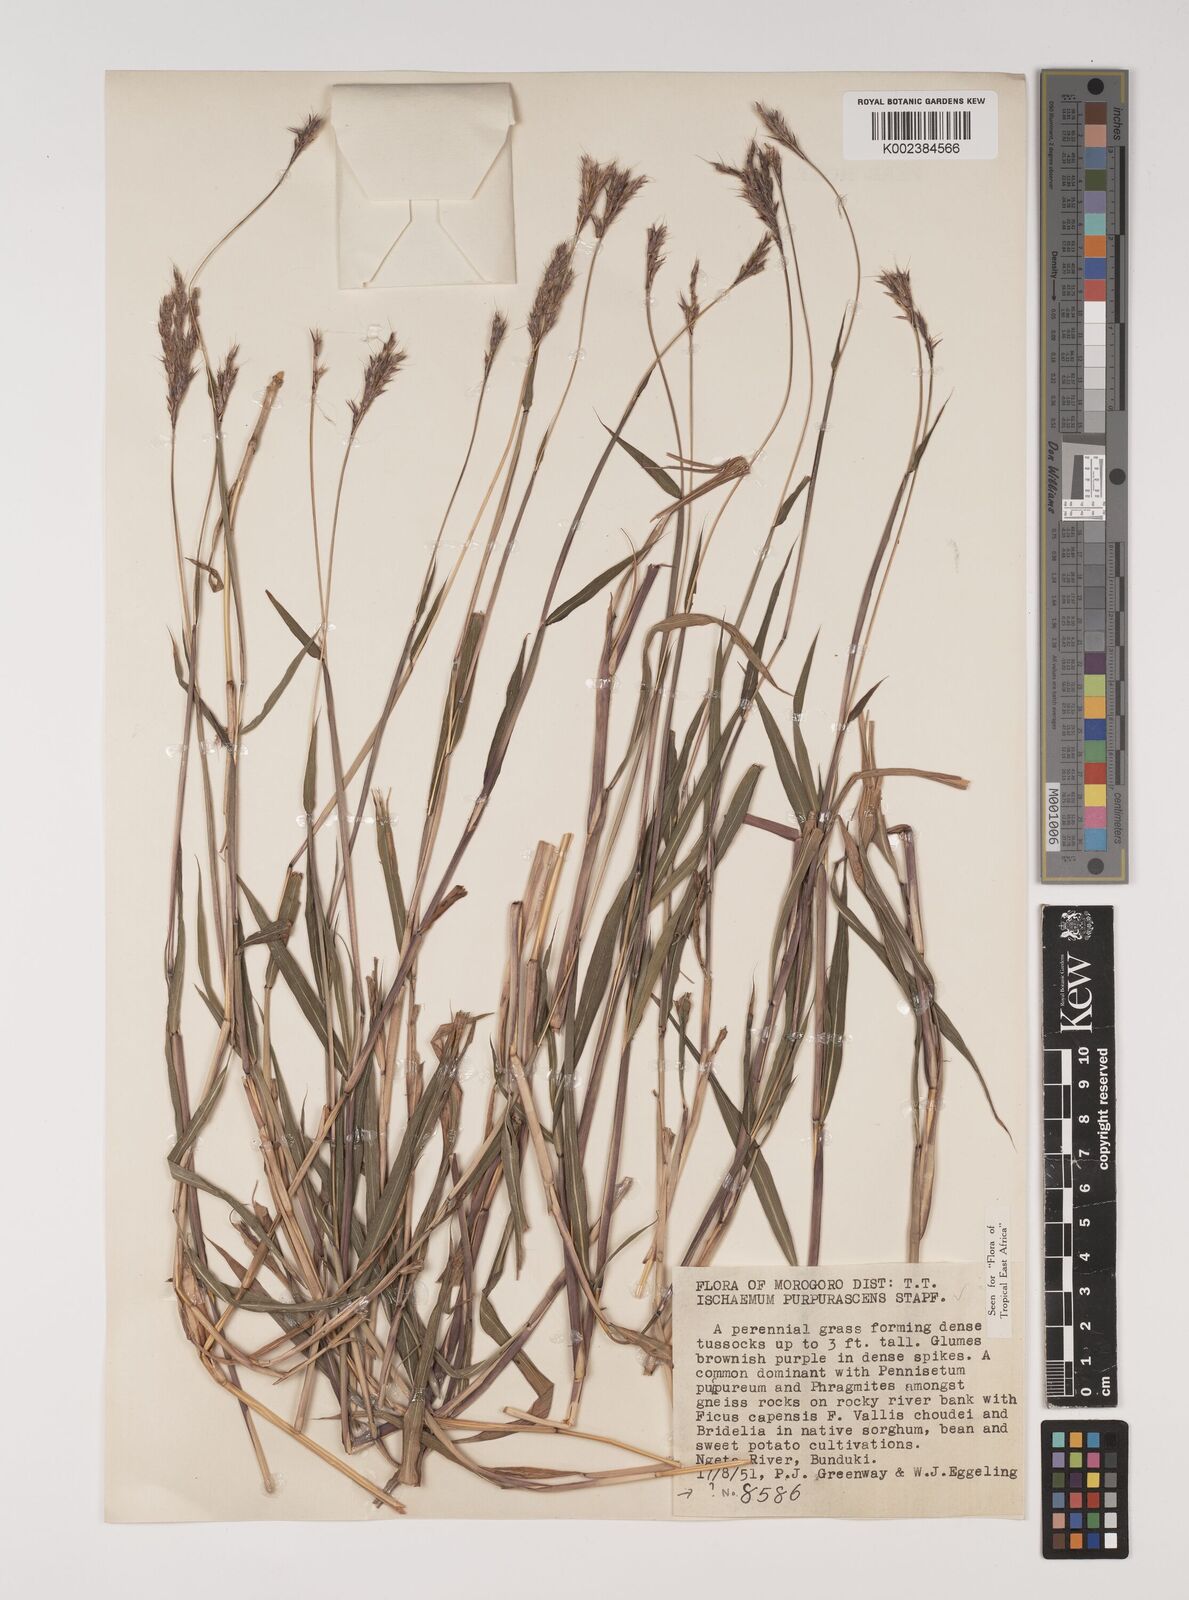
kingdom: Plantae
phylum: Tracheophyta
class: Liliopsida
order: Poales
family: Poaceae
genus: Ischaemum
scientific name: Ischaemum polystachyum
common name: Paddle grass
